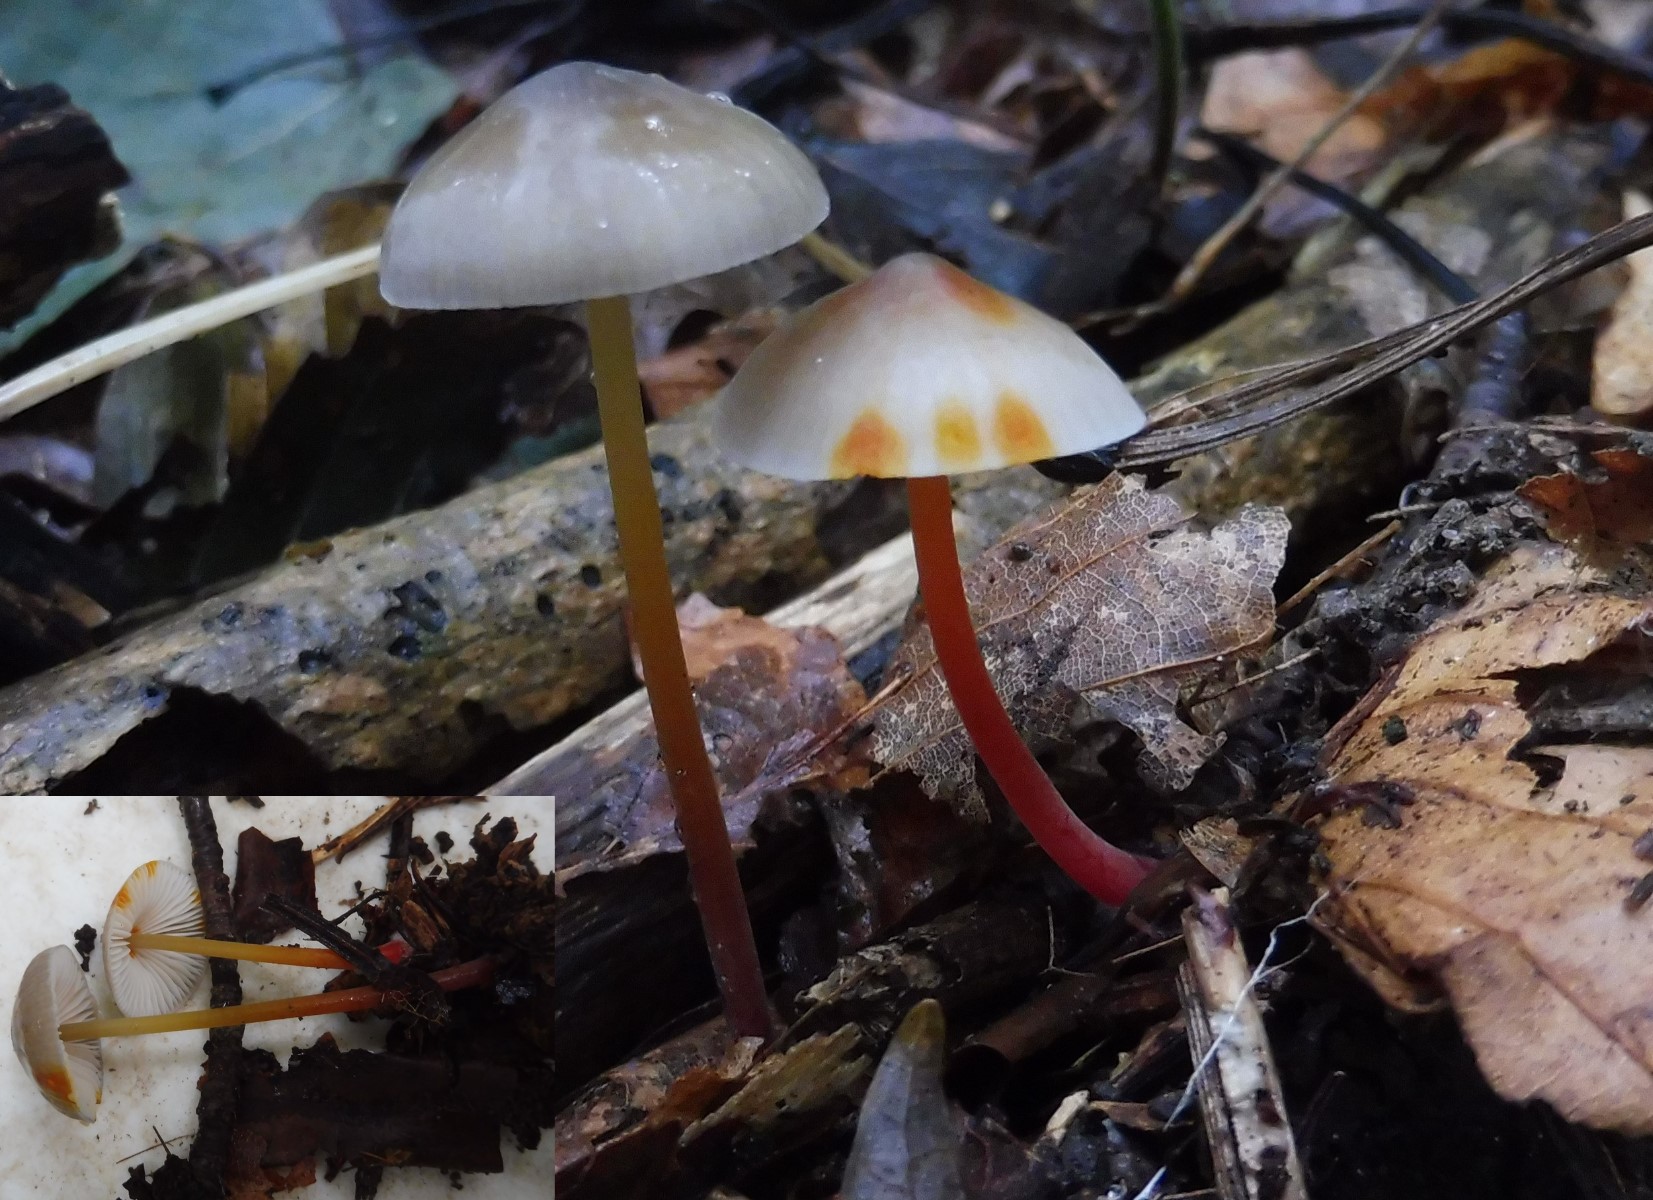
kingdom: Fungi
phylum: Basidiomycota
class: Agaricomycetes
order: Agaricales
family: Mycenaceae
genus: Mycena
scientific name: Mycena crocata
